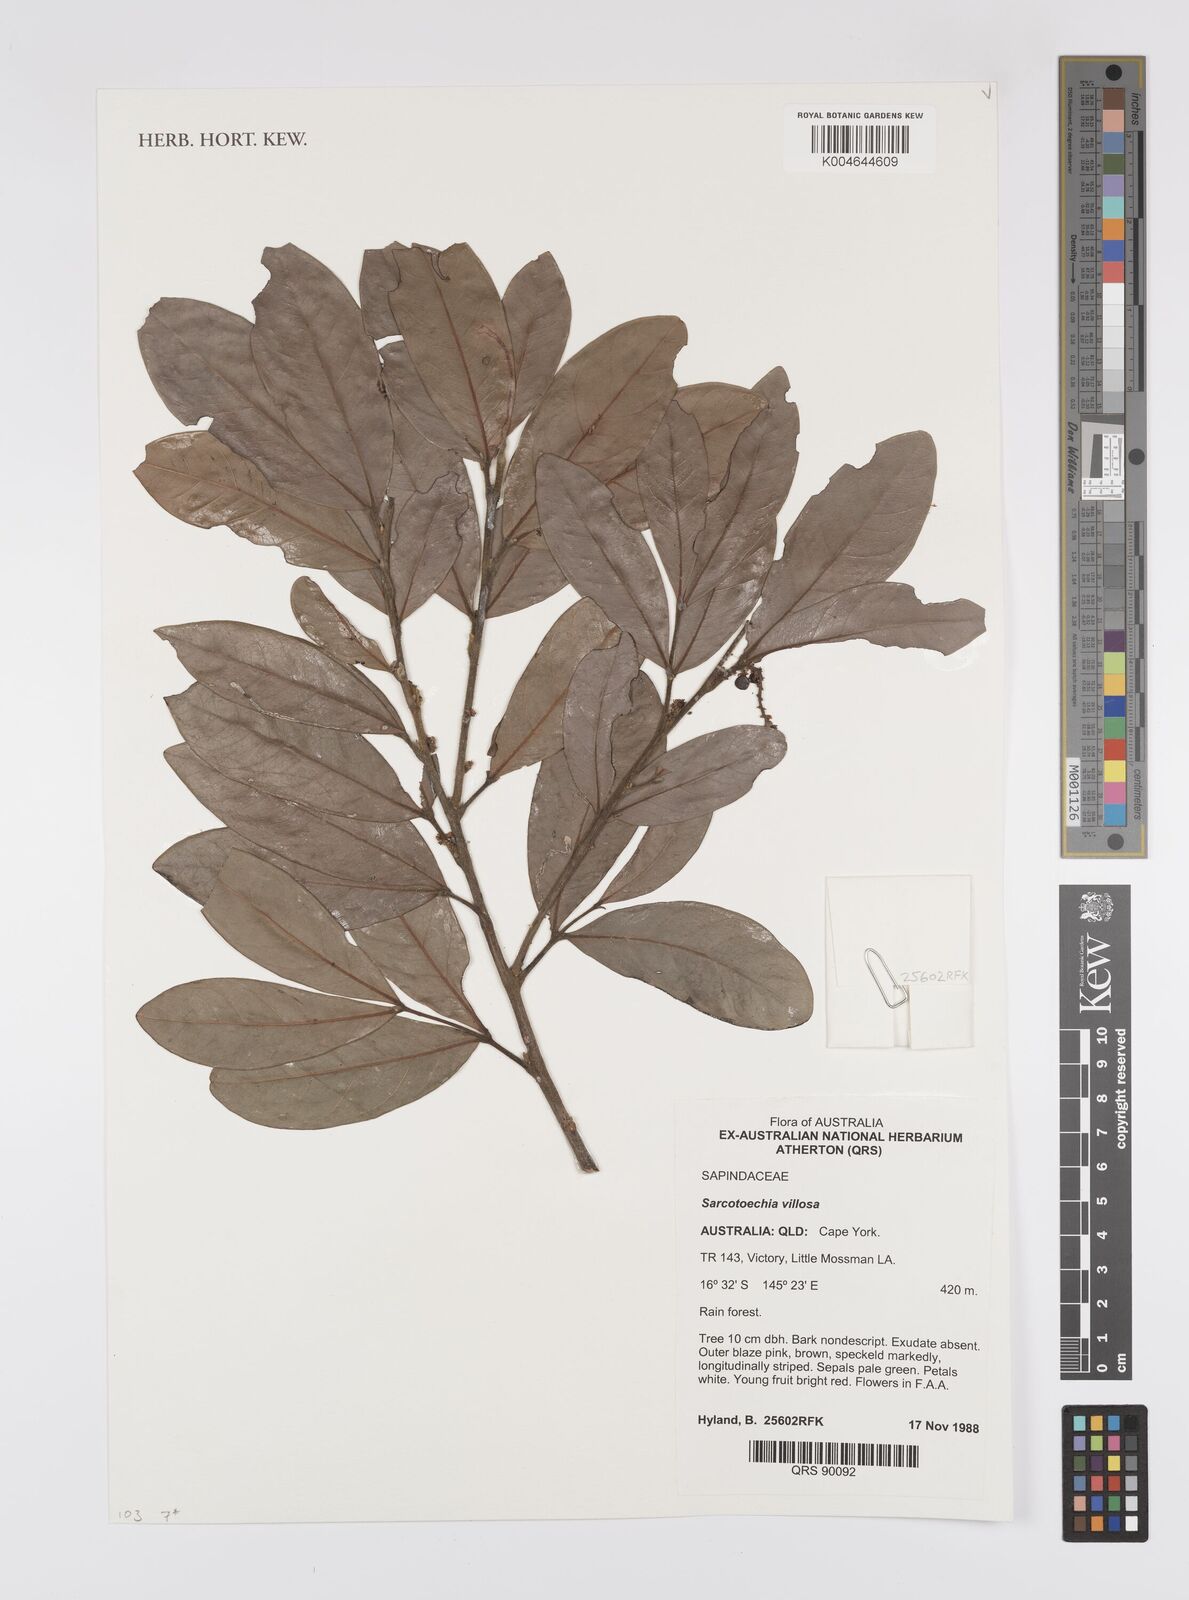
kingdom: Plantae
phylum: Tracheophyta
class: Magnoliopsida
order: Sapindales
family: Sapindaceae
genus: Sarcotoechia
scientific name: Sarcotoechia villosa
